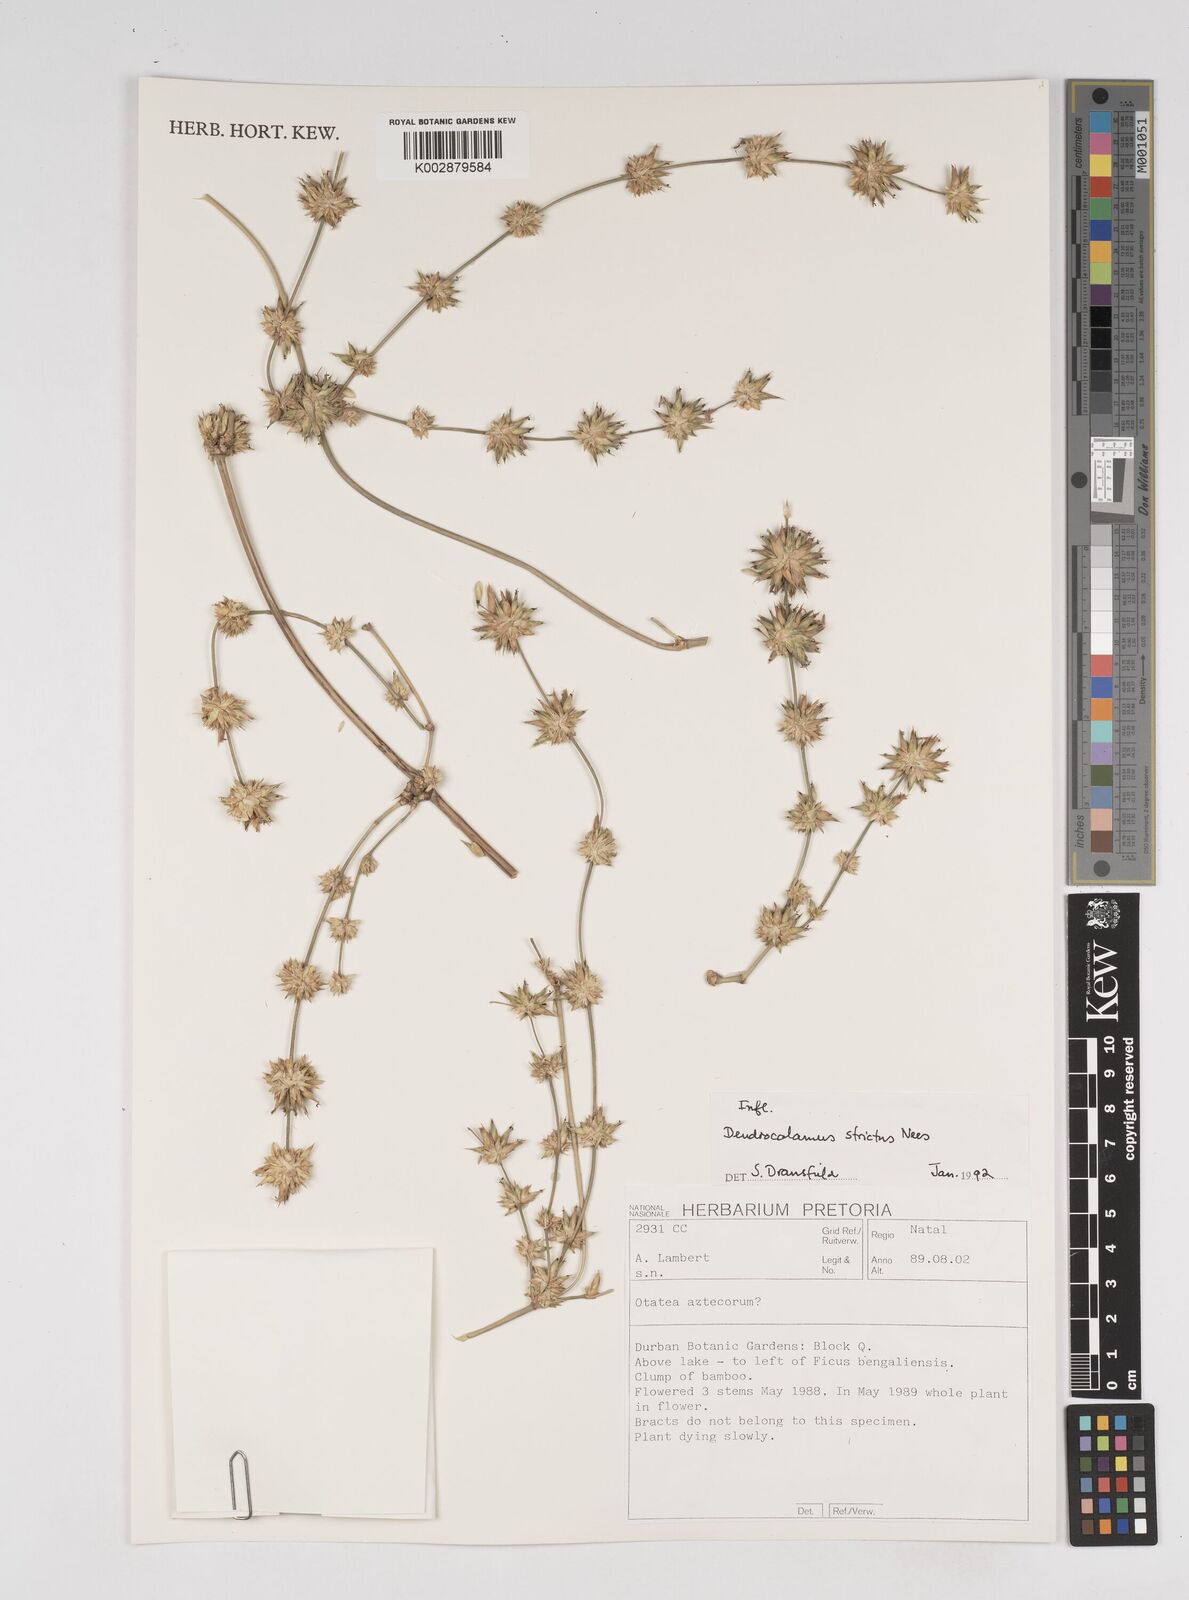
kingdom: Plantae
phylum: Tracheophyta
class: Liliopsida
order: Poales
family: Poaceae
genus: Dendrocalamus
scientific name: Dendrocalamus strictus
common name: Male bamboo
